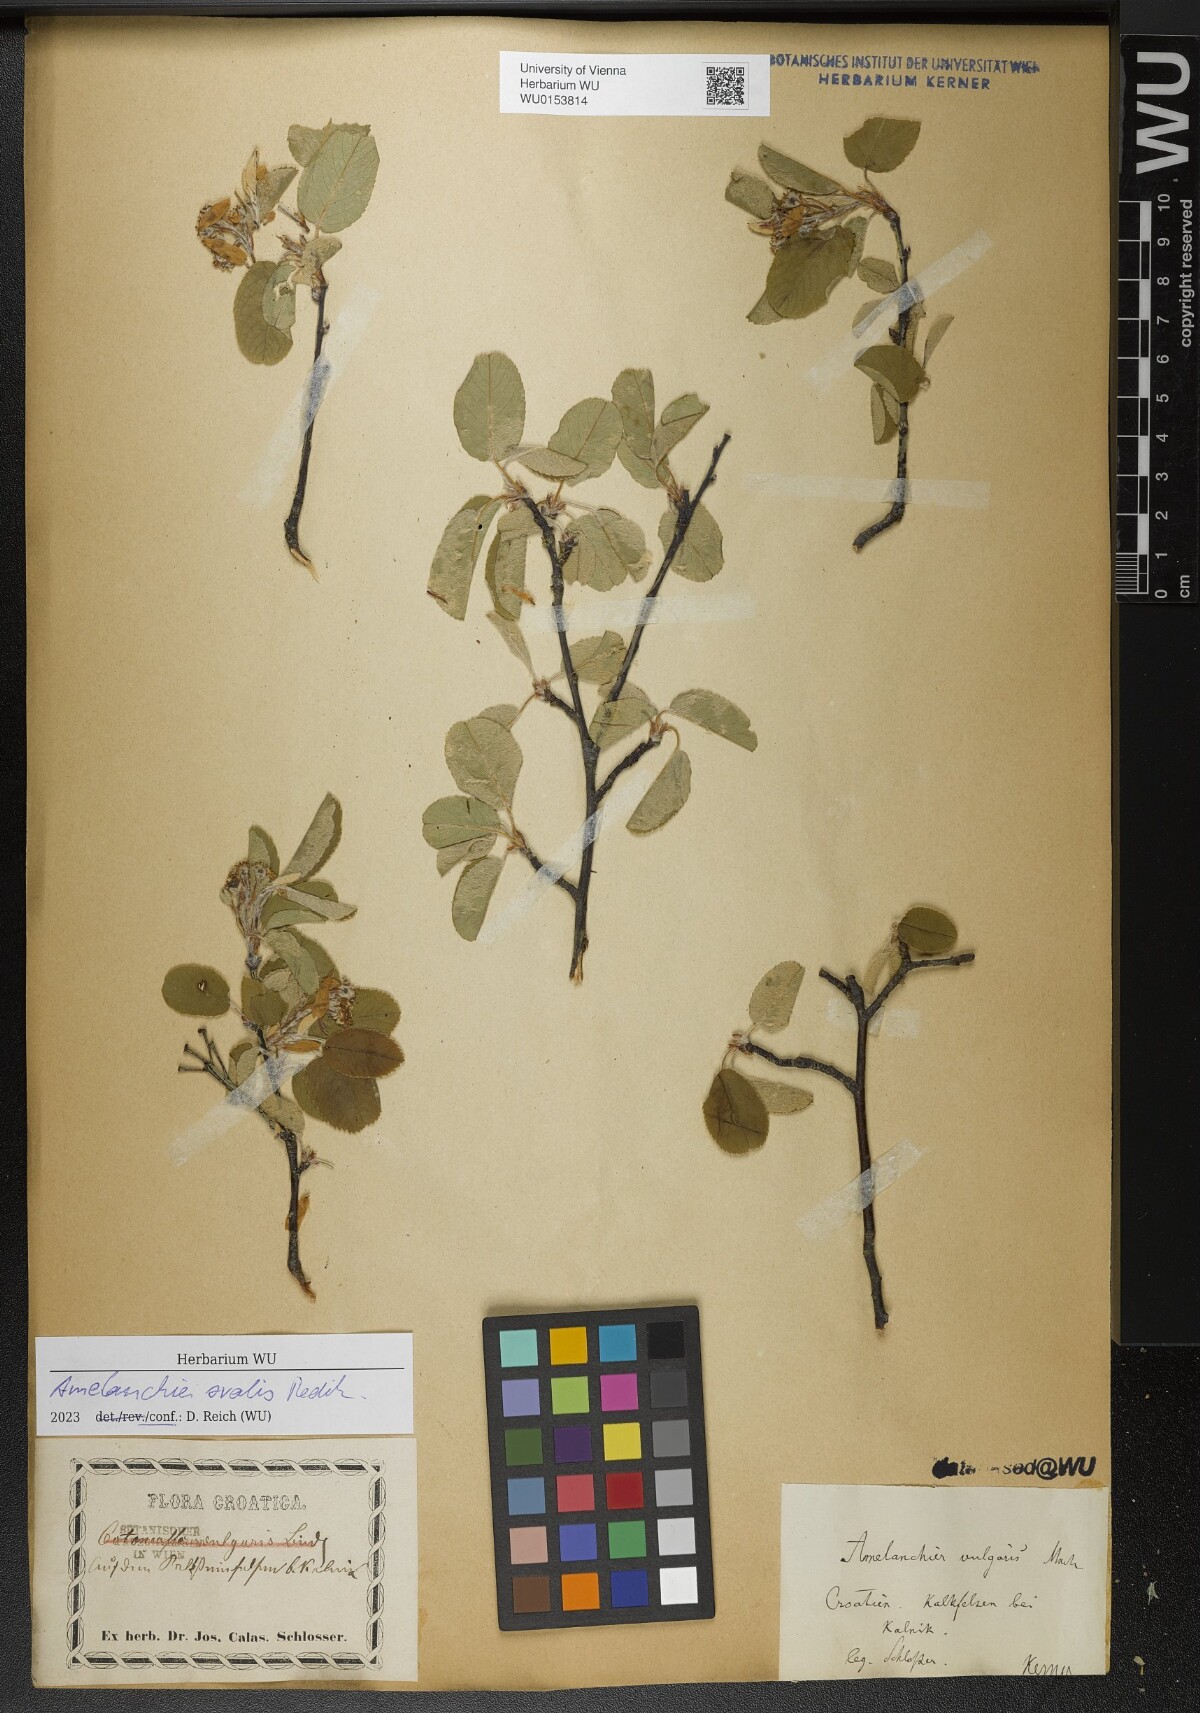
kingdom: Plantae
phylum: Tracheophyta
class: Magnoliopsida
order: Rosales
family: Rosaceae
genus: Amelanchier
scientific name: Amelanchier ovalis
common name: Serviceberry
